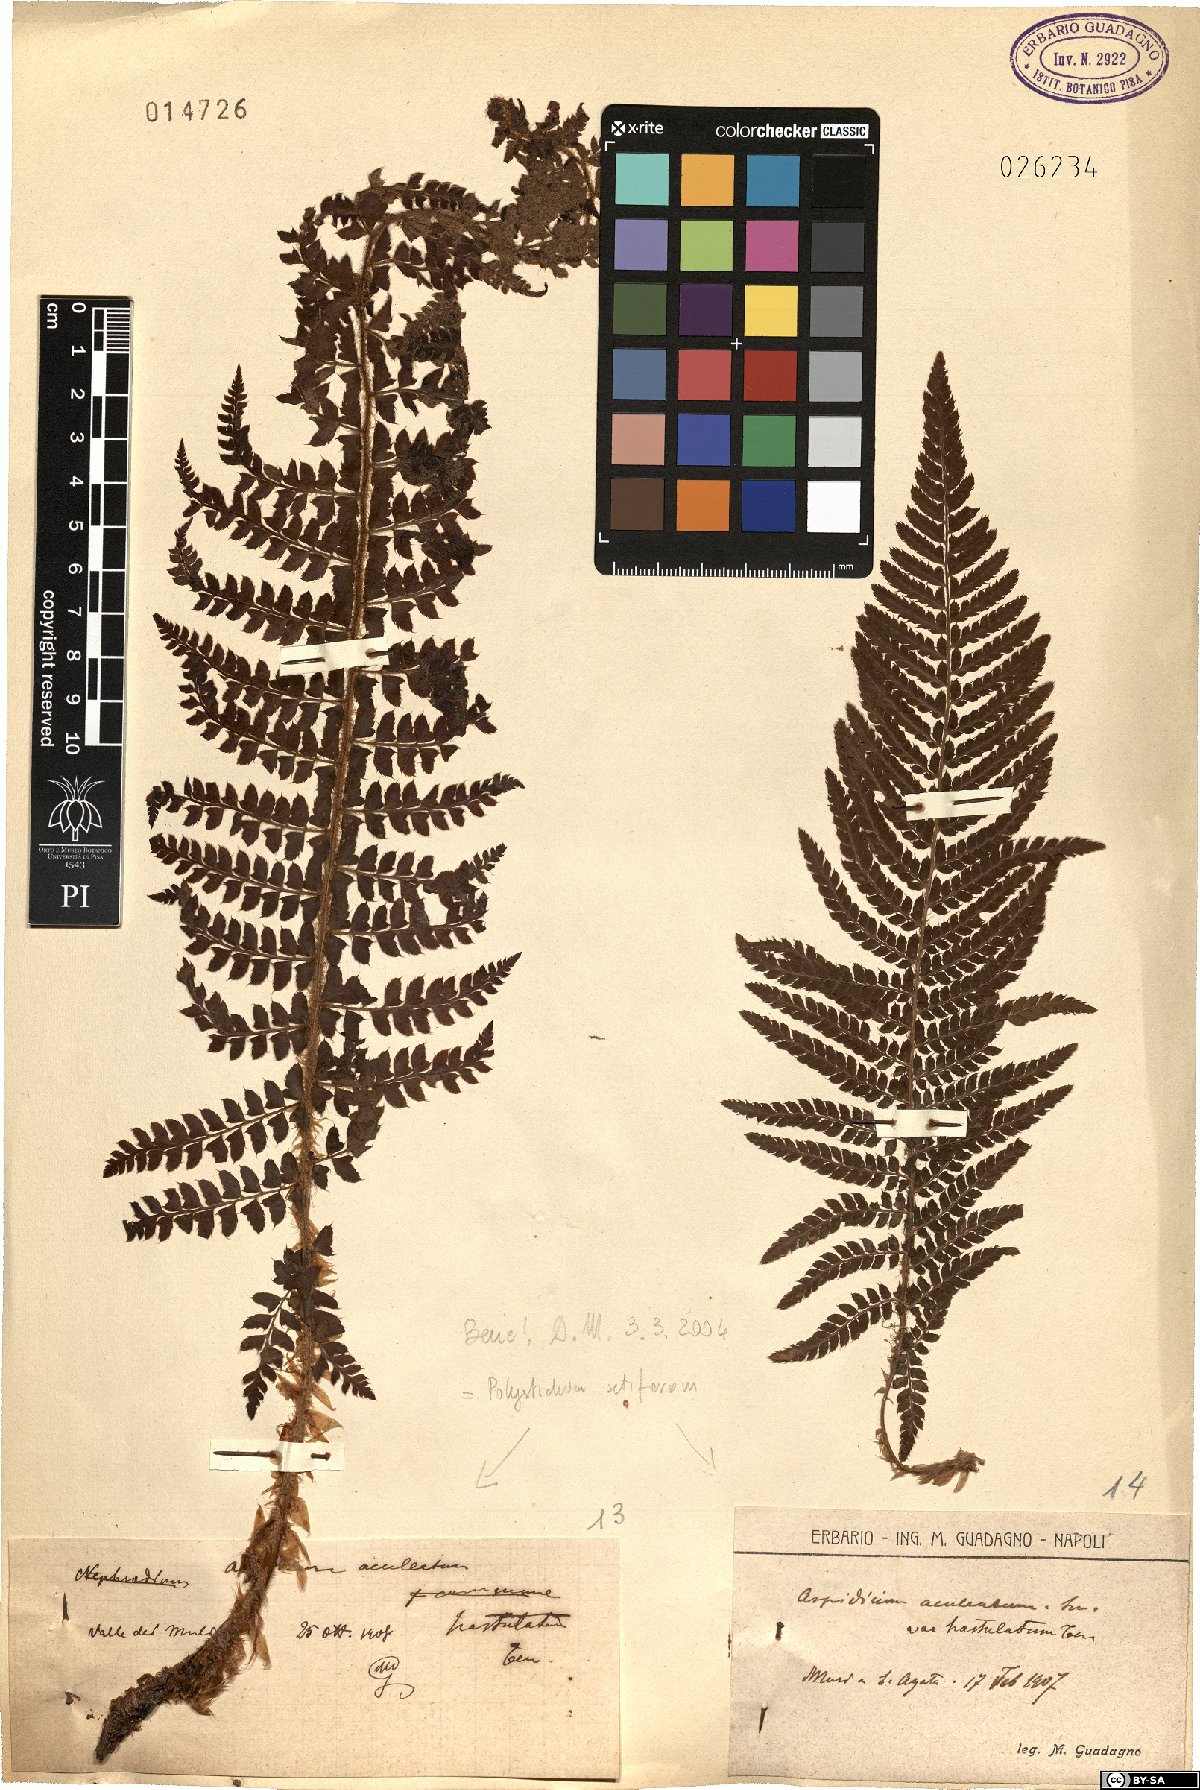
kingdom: Plantae
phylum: Tracheophyta
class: Polypodiopsida
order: Polypodiales
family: Dryopteridaceae
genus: Polystichum
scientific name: Polystichum setiferum
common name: Soft shield-fern
